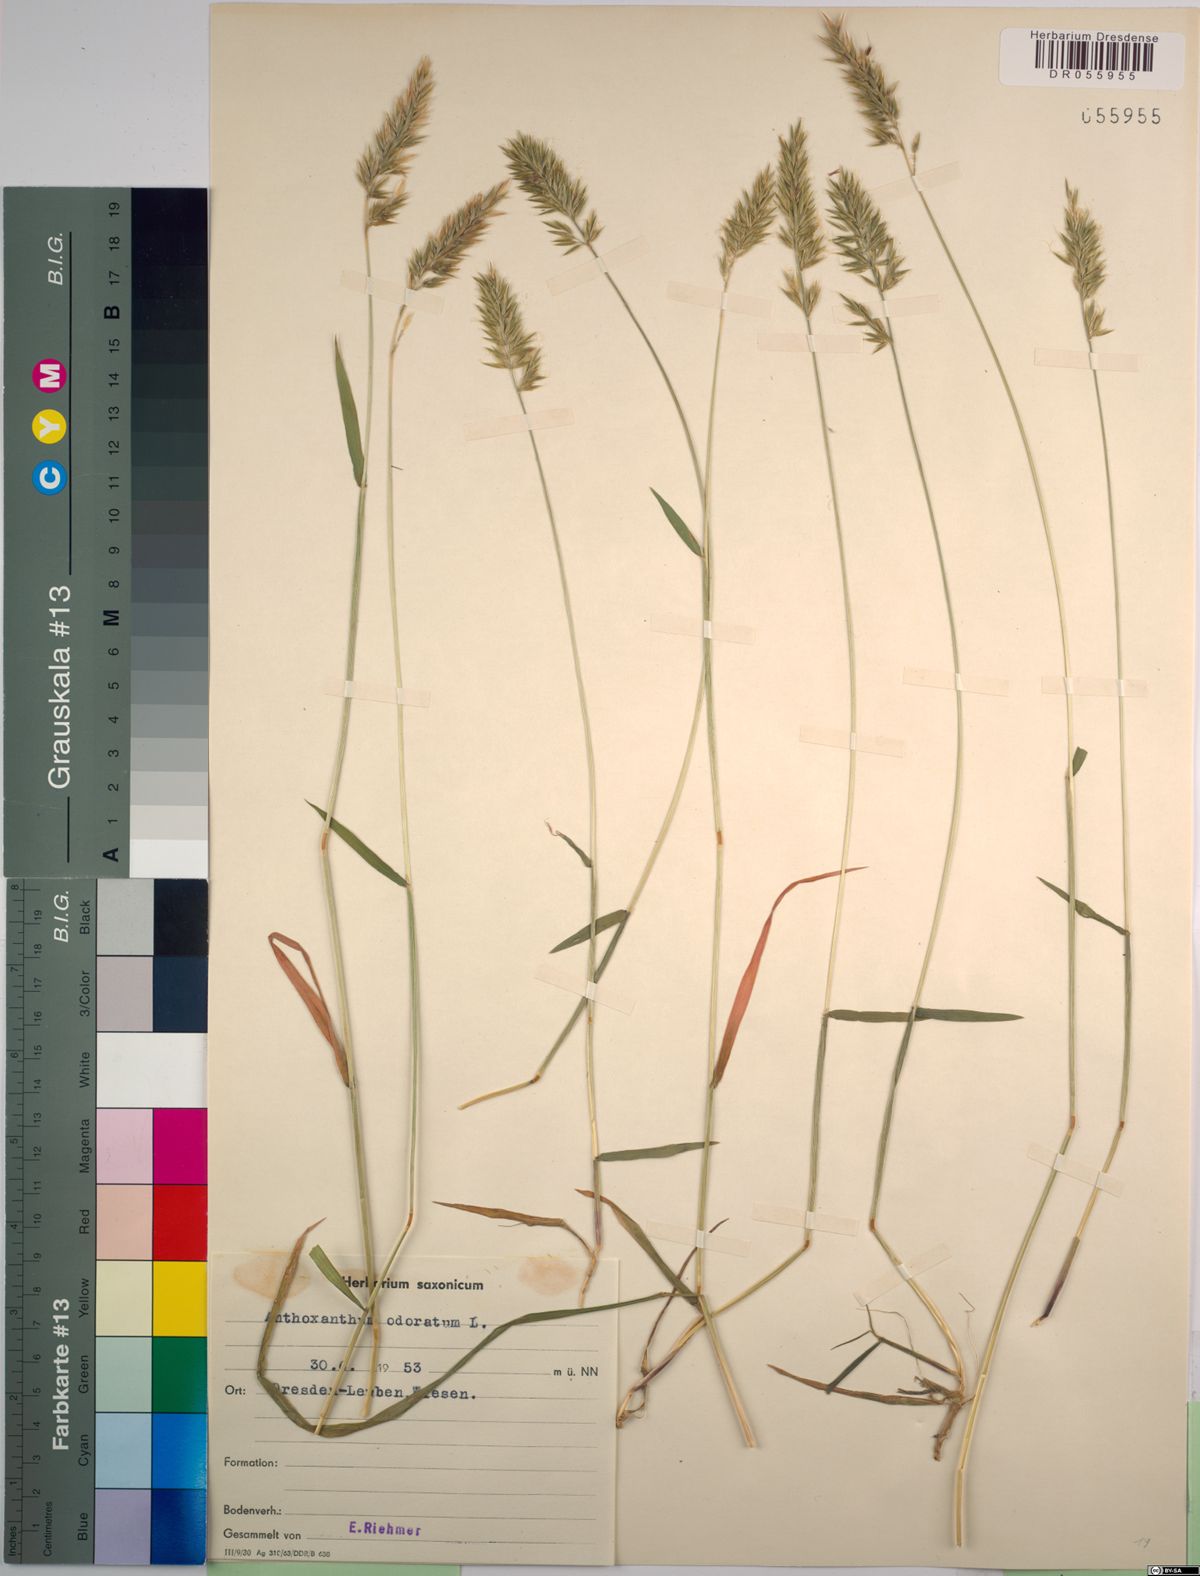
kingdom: Plantae
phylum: Tracheophyta
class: Liliopsida
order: Poales
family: Poaceae
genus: Anthoxanthum
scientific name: Anthoxanthum odoratum
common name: Sweet vernalgrass
